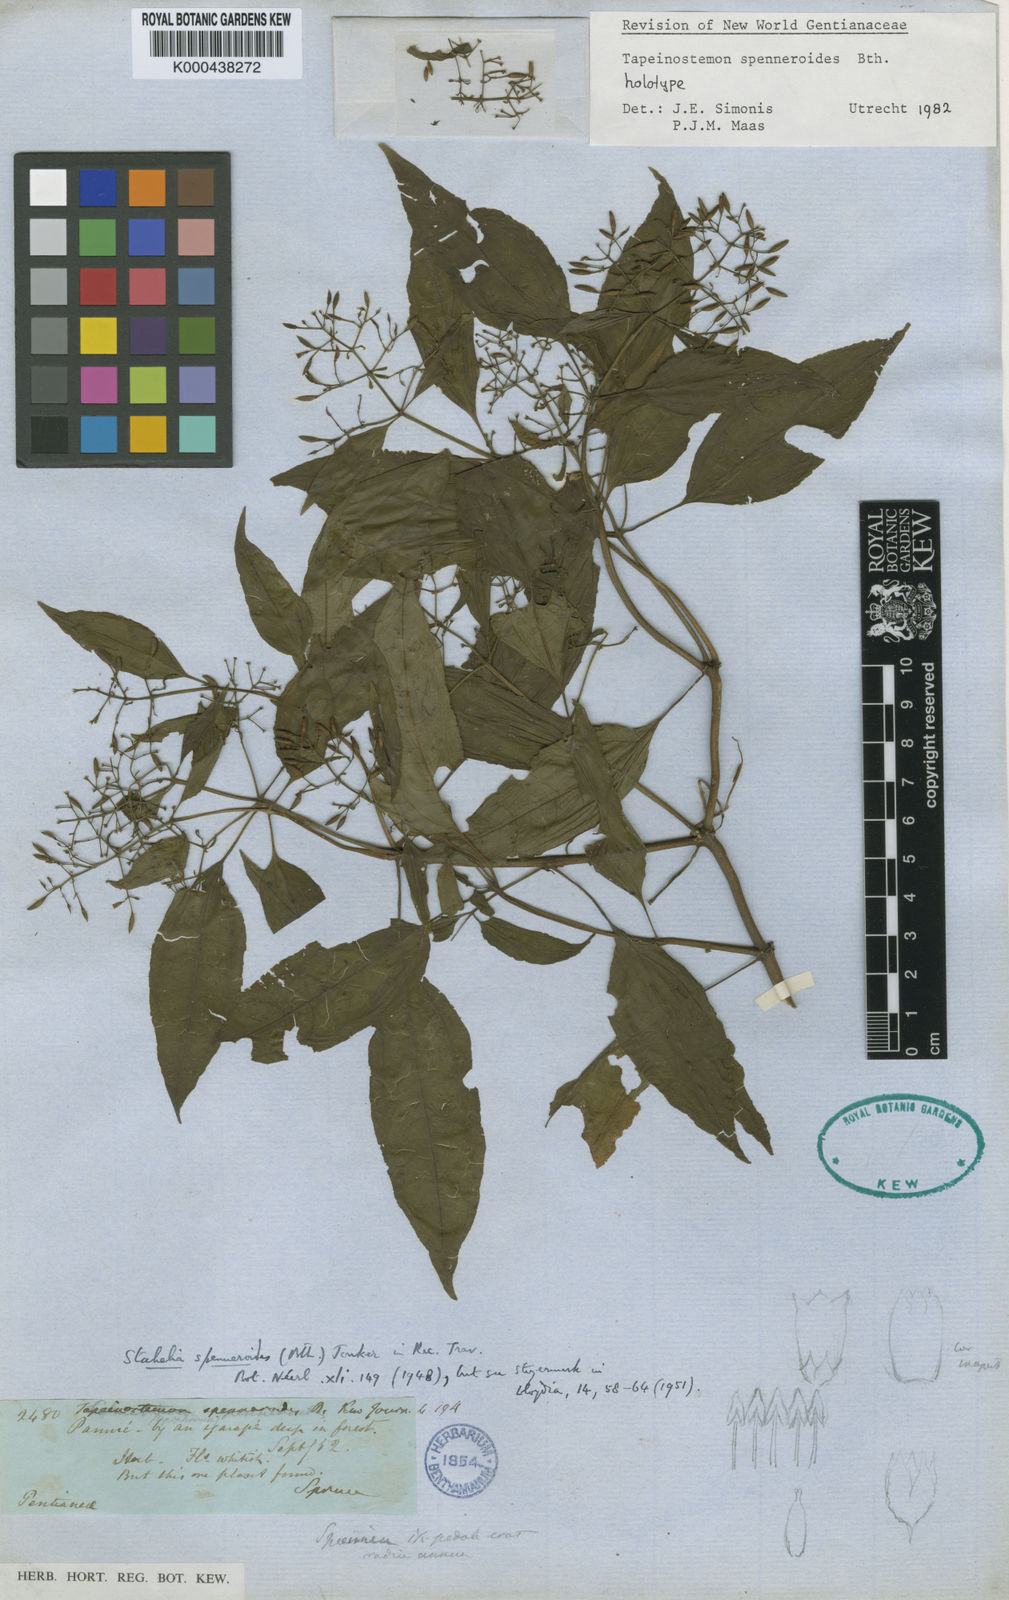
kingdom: Plantae
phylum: Tracheophyta
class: Magnoliopsida
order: Gentianales
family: Gentianaceae
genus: Tapeinostemon
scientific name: Tapeinostemon spenneroides
